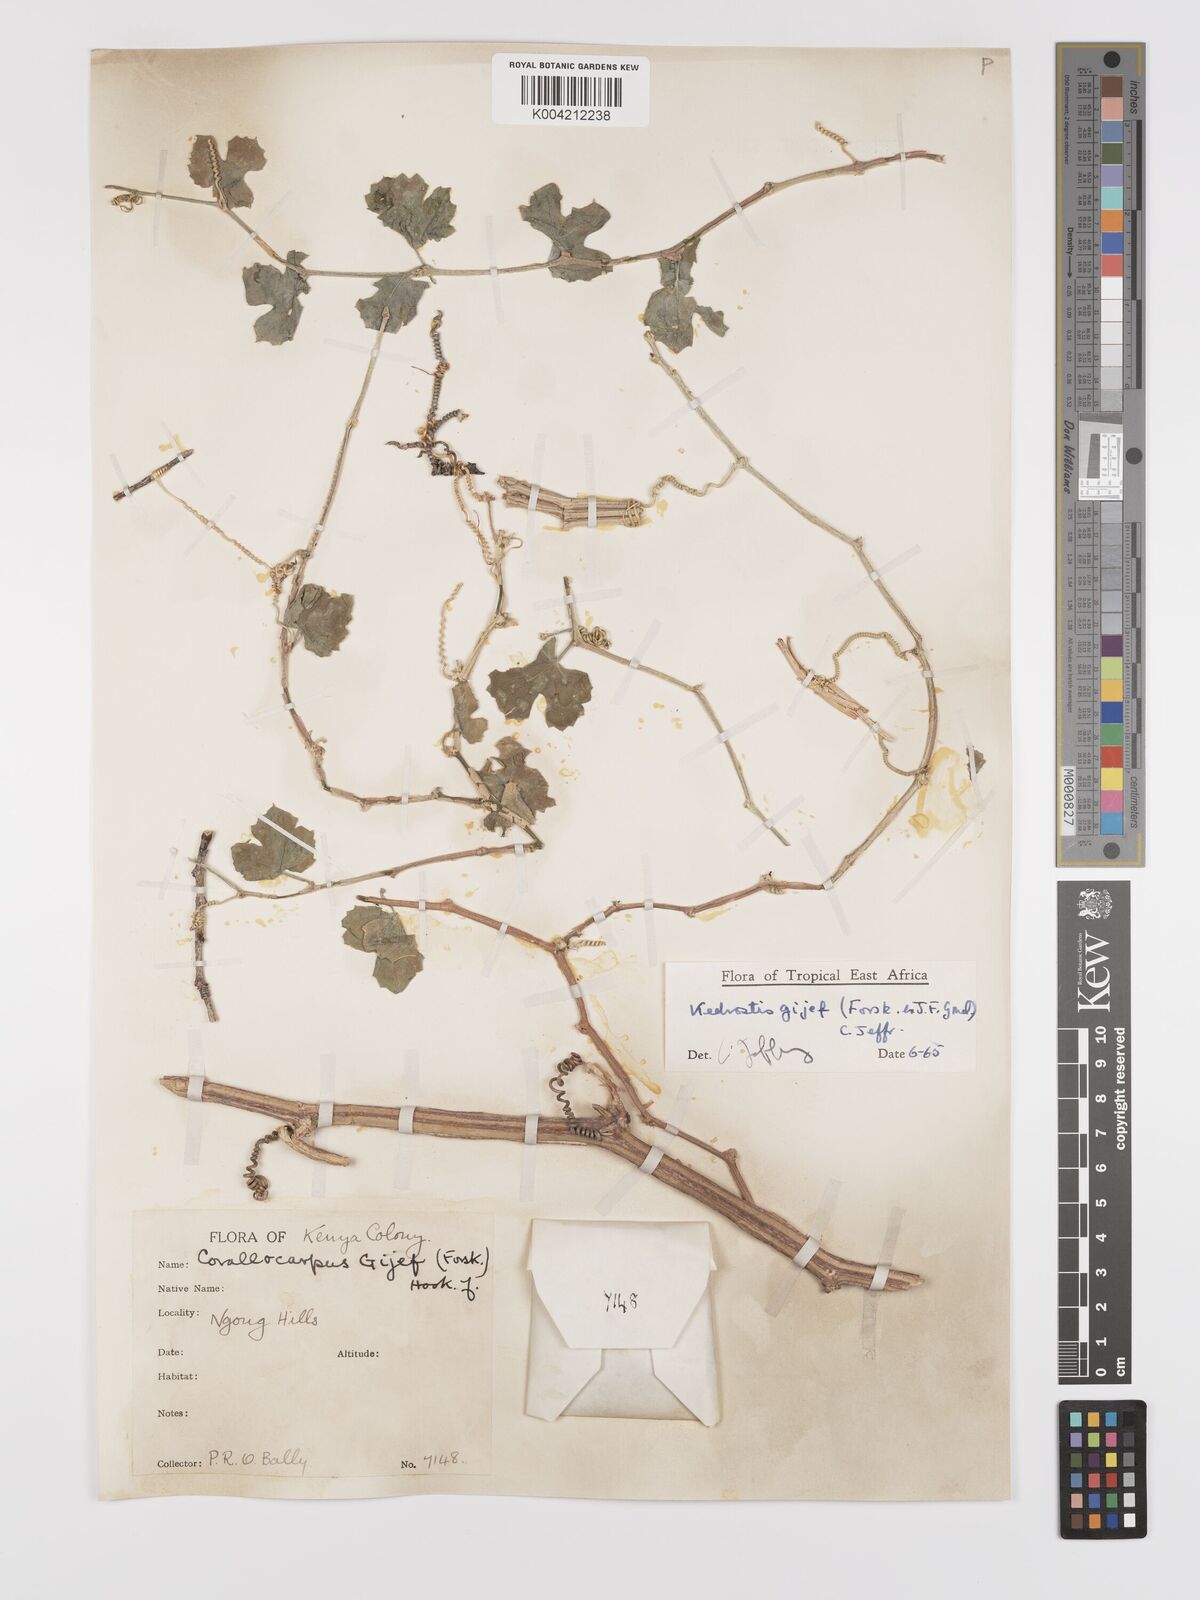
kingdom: Plantae
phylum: Tracheophyta
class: Magnoliopsida
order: Cucurbitales
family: Cucurbitaceae
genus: Kedrostis
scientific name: Kedrostis gijef
